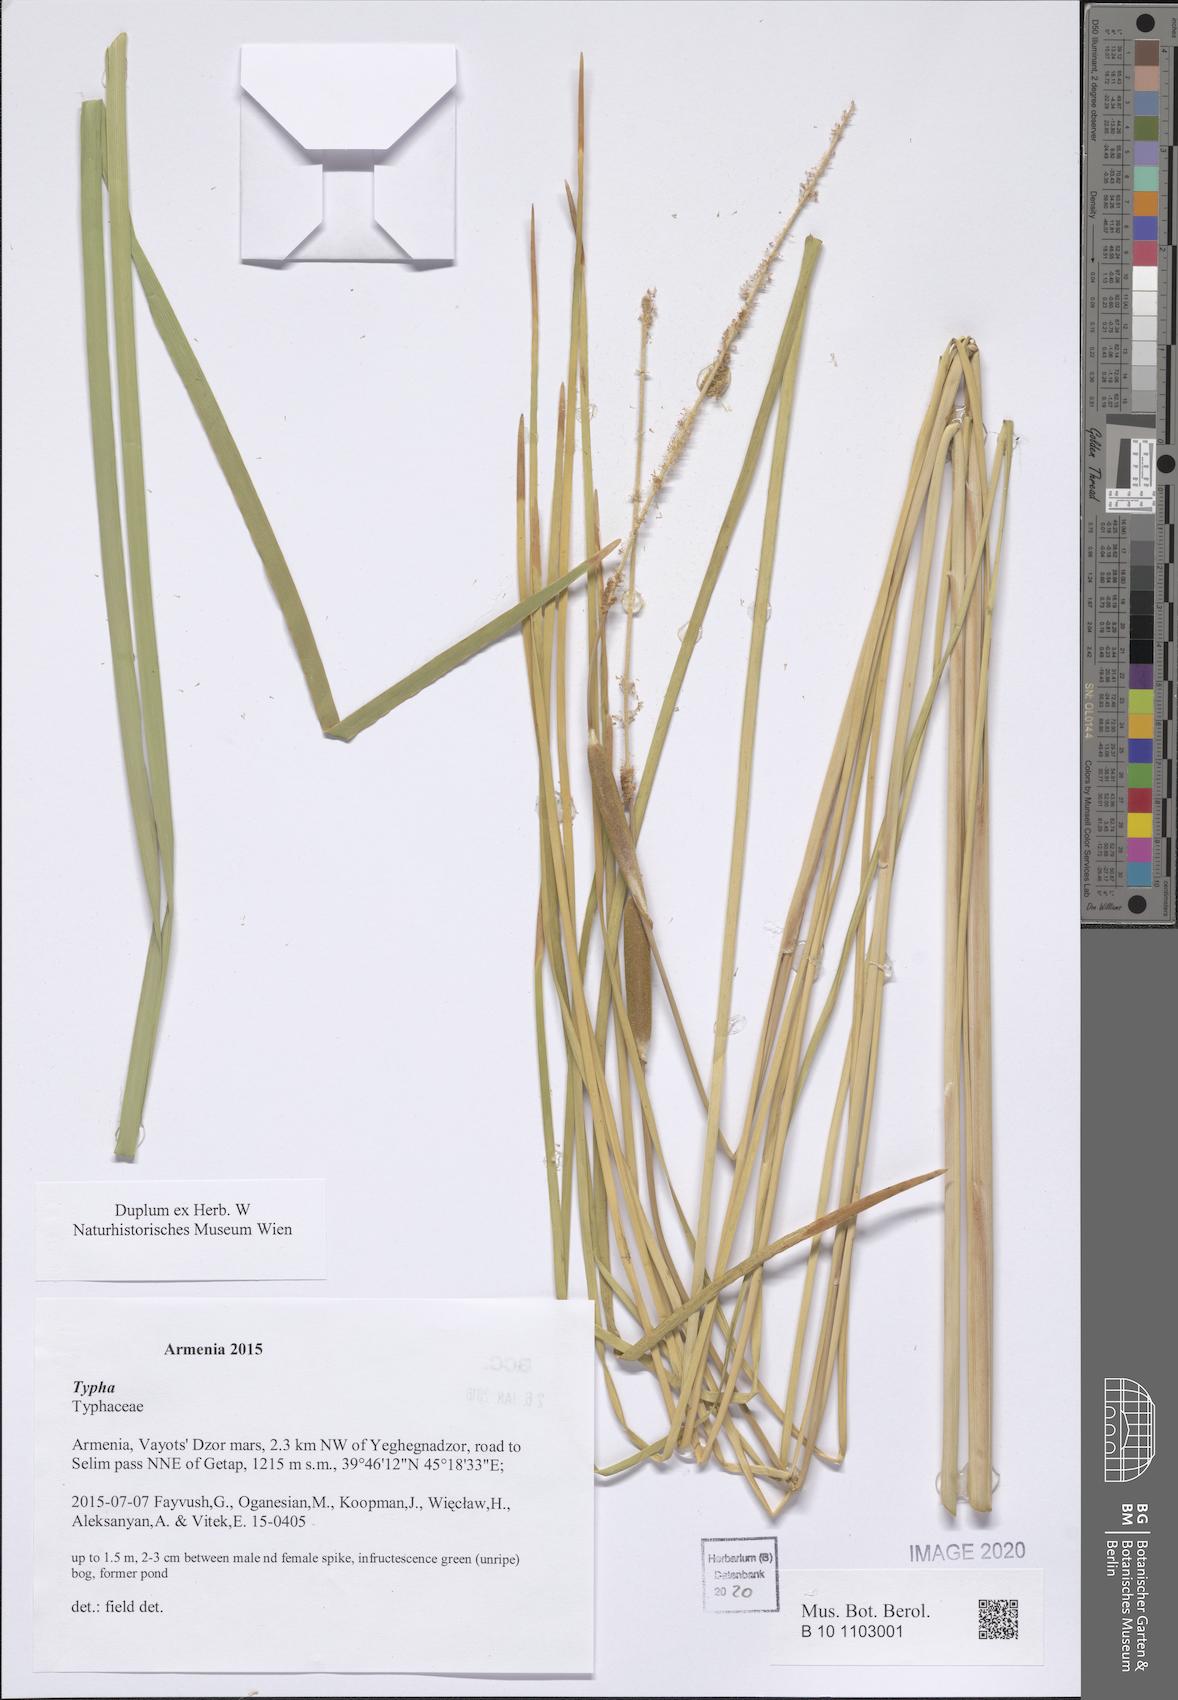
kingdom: Plantae
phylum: Tracheophyta
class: Liliopsida
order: Poales
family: Typhaceae
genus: Typha
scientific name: Typha
